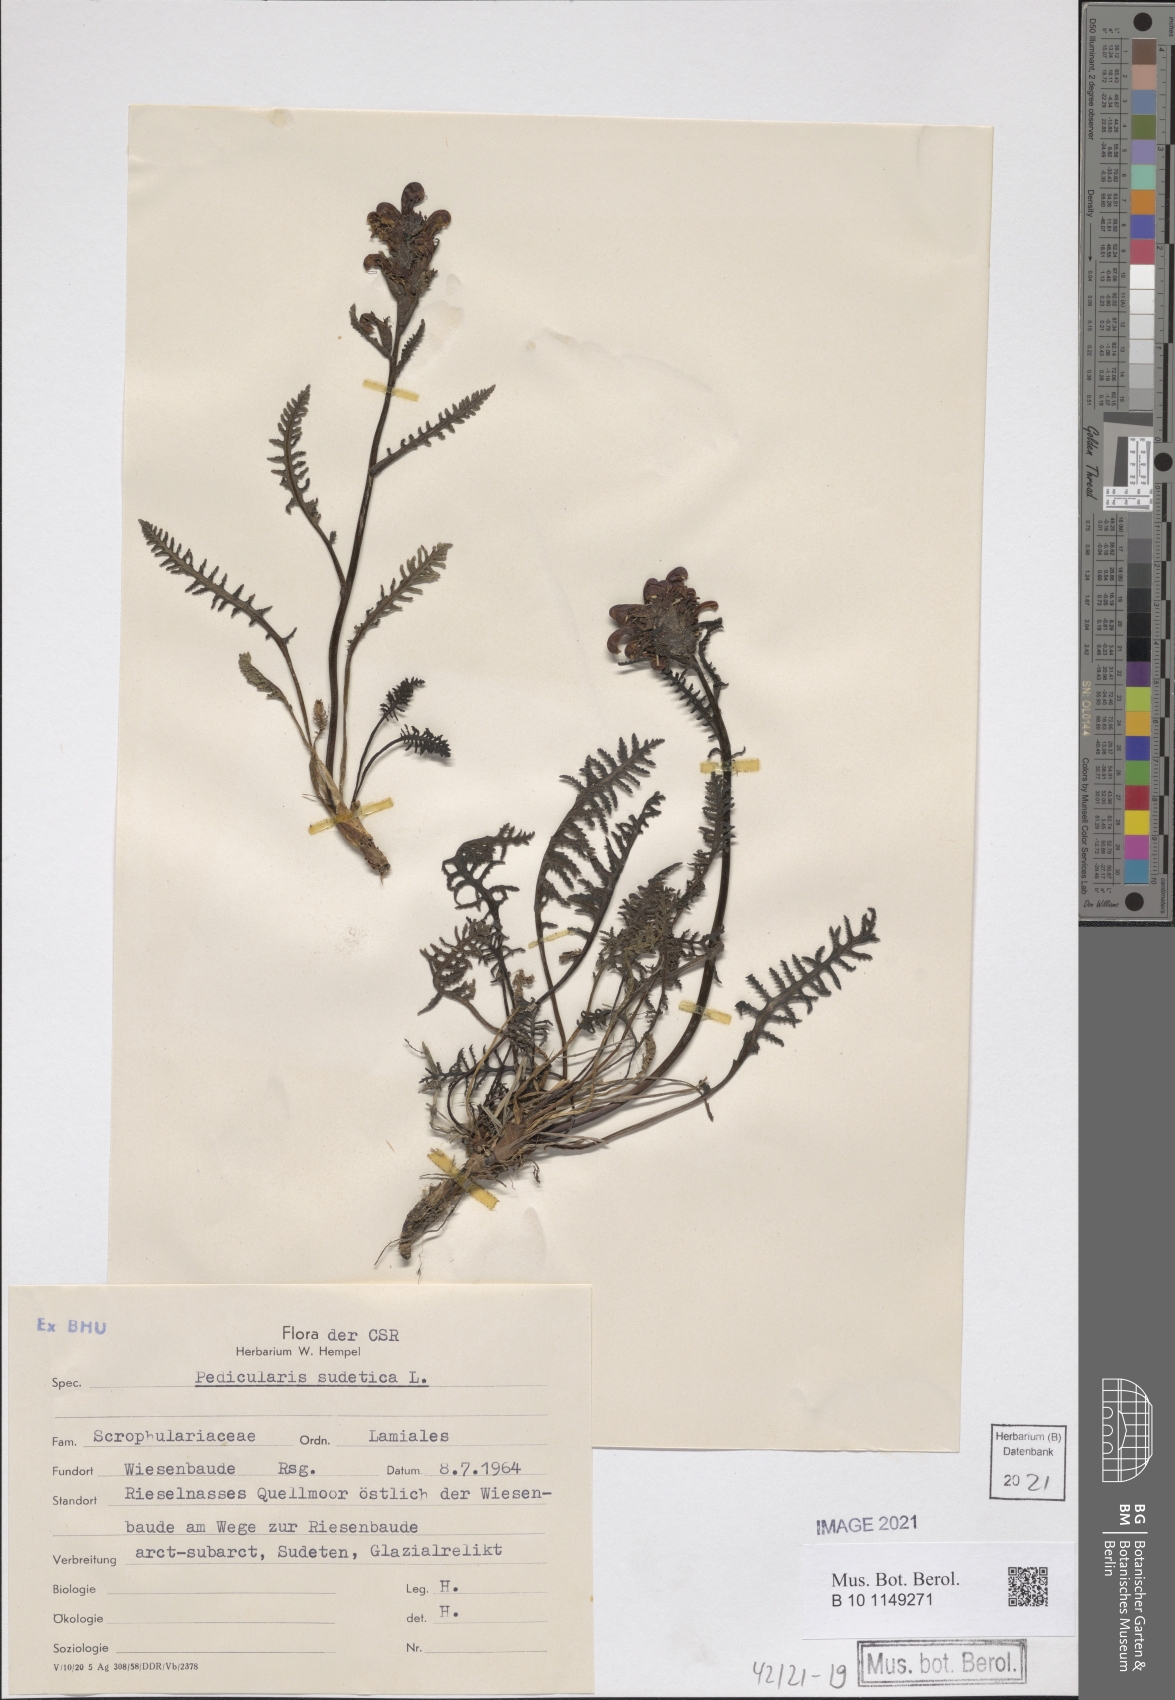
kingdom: Plantae
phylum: Tracheophyta
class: Magnoliopsida
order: Lamiales
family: Orobanchaceae
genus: Pedicularis
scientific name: Pedicularis sudetica
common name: Sudeten lousewort
